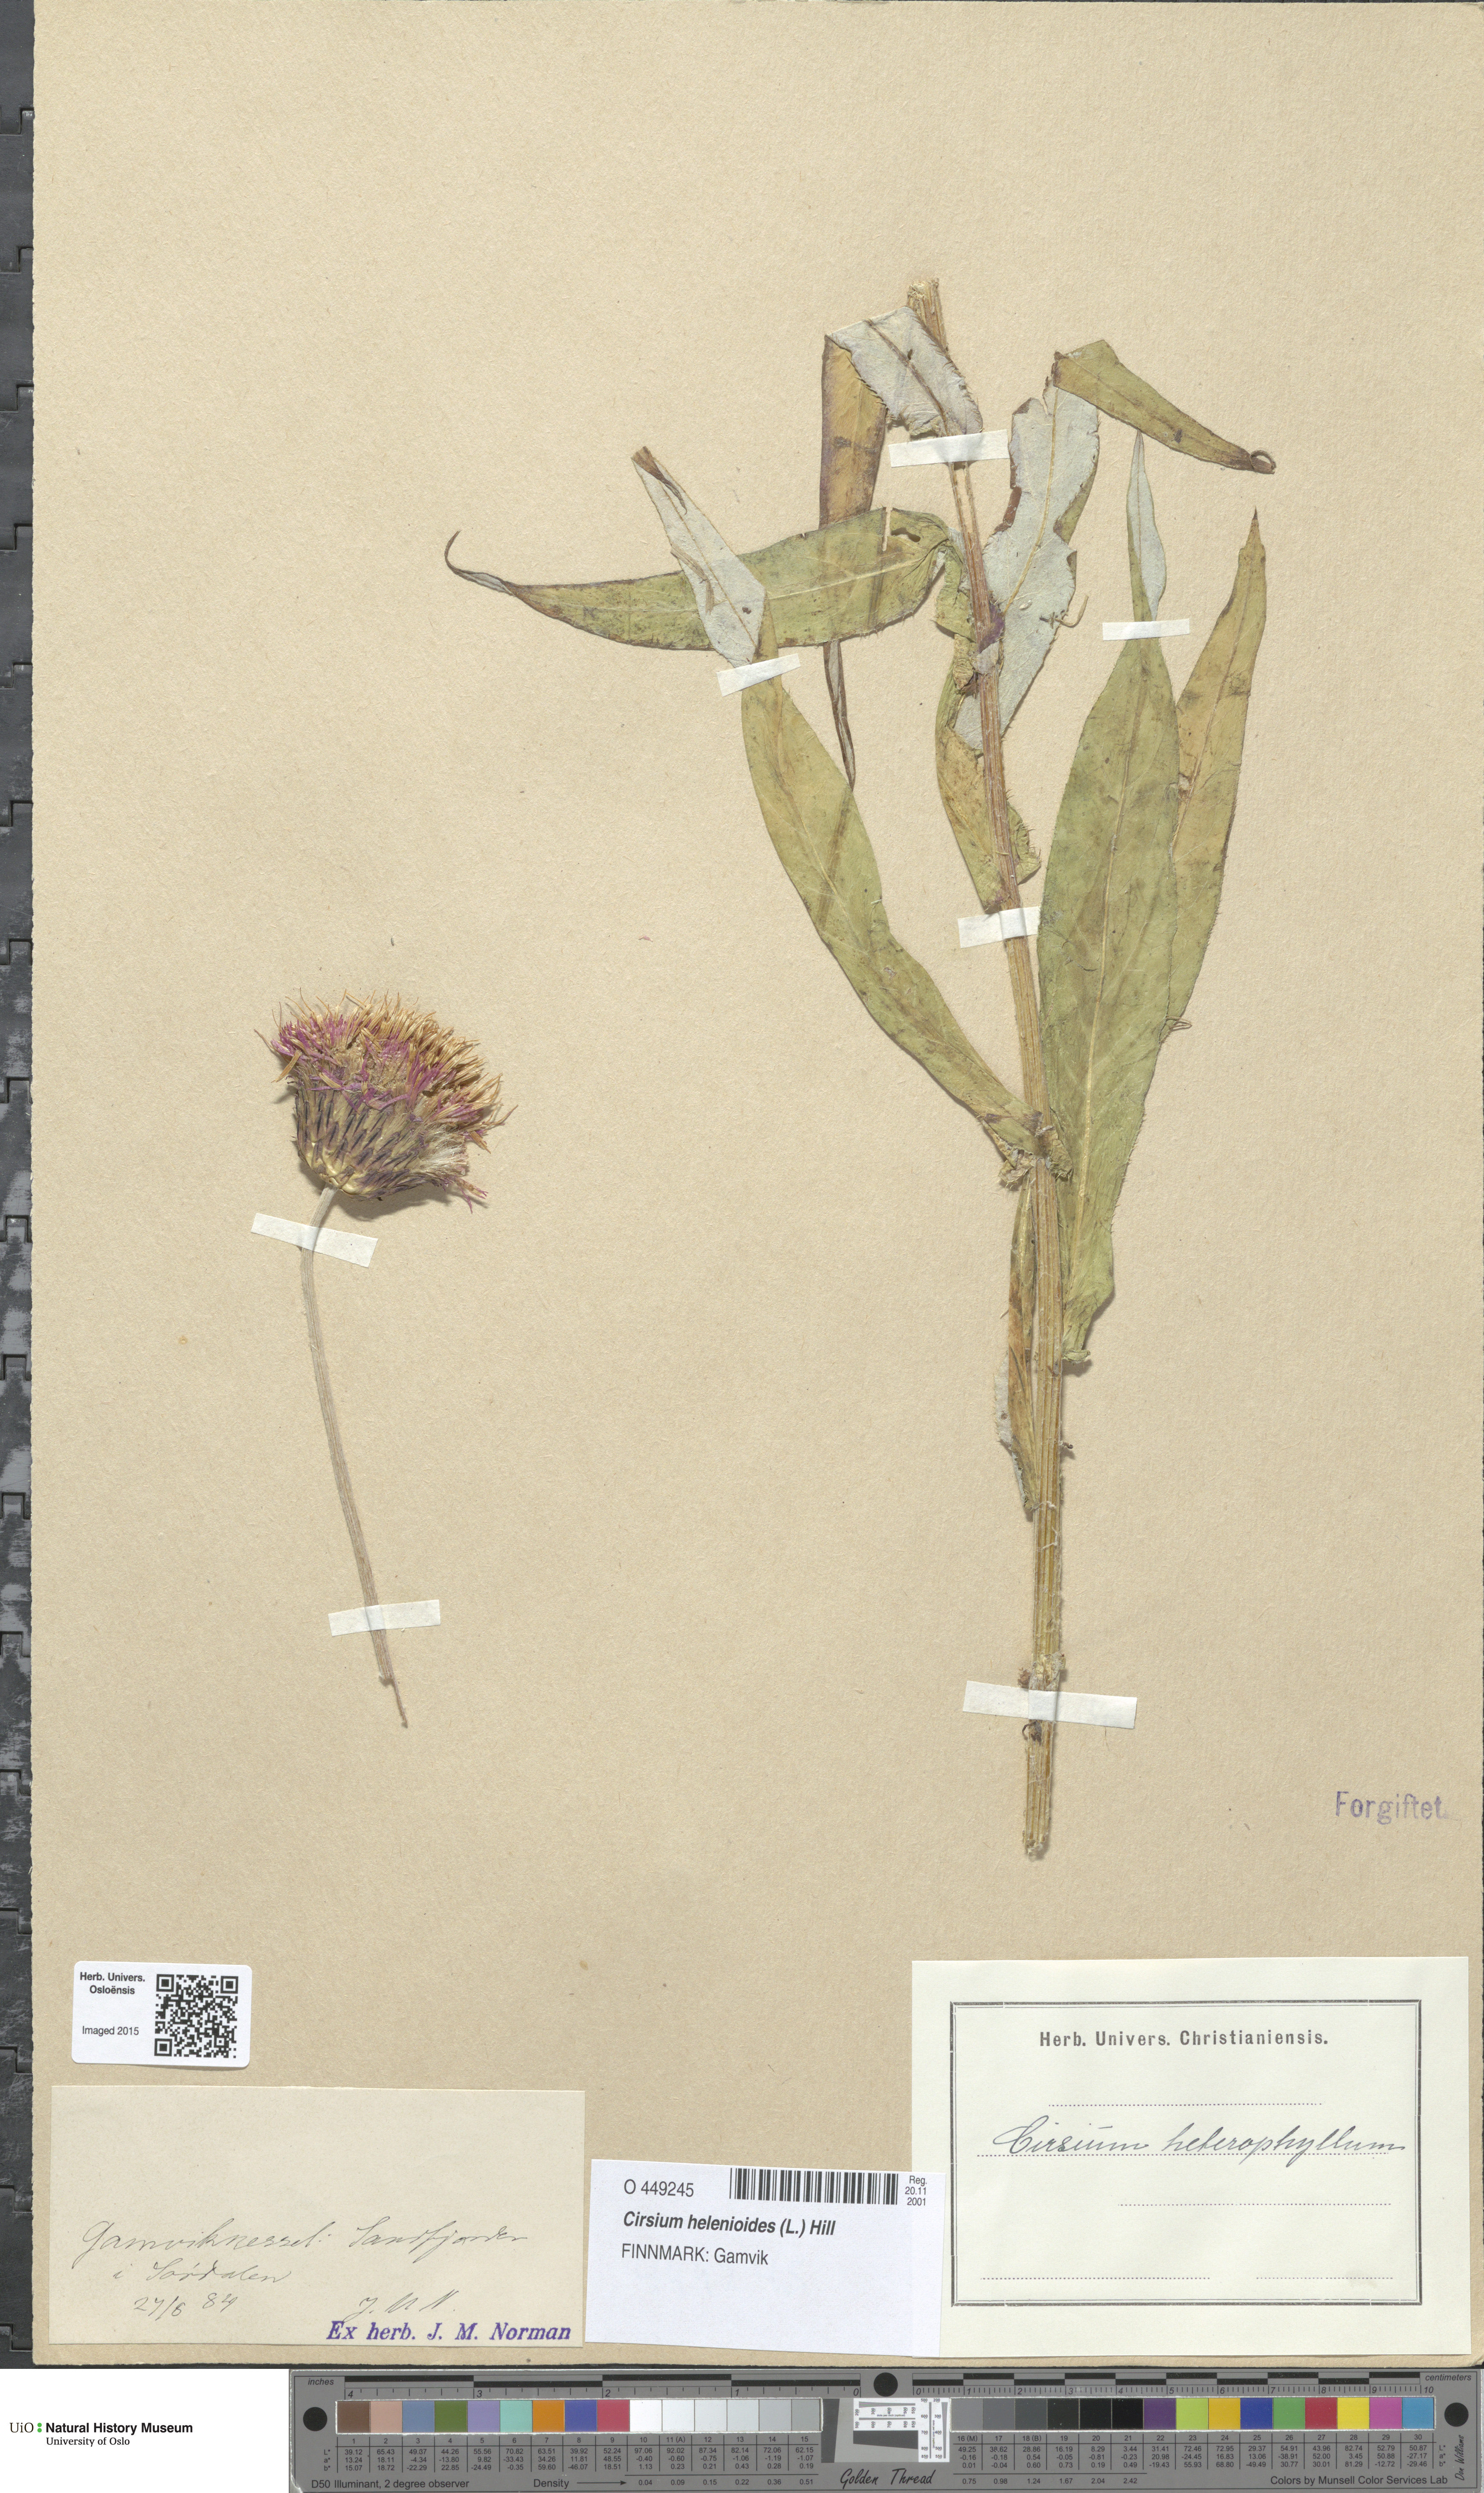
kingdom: Plantae
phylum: Tracheophyta
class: Magnoliopsida
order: Asterales
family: Asteraceae
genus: Cirsium
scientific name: Cirsium heterophyllum
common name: Melancholy thistle
